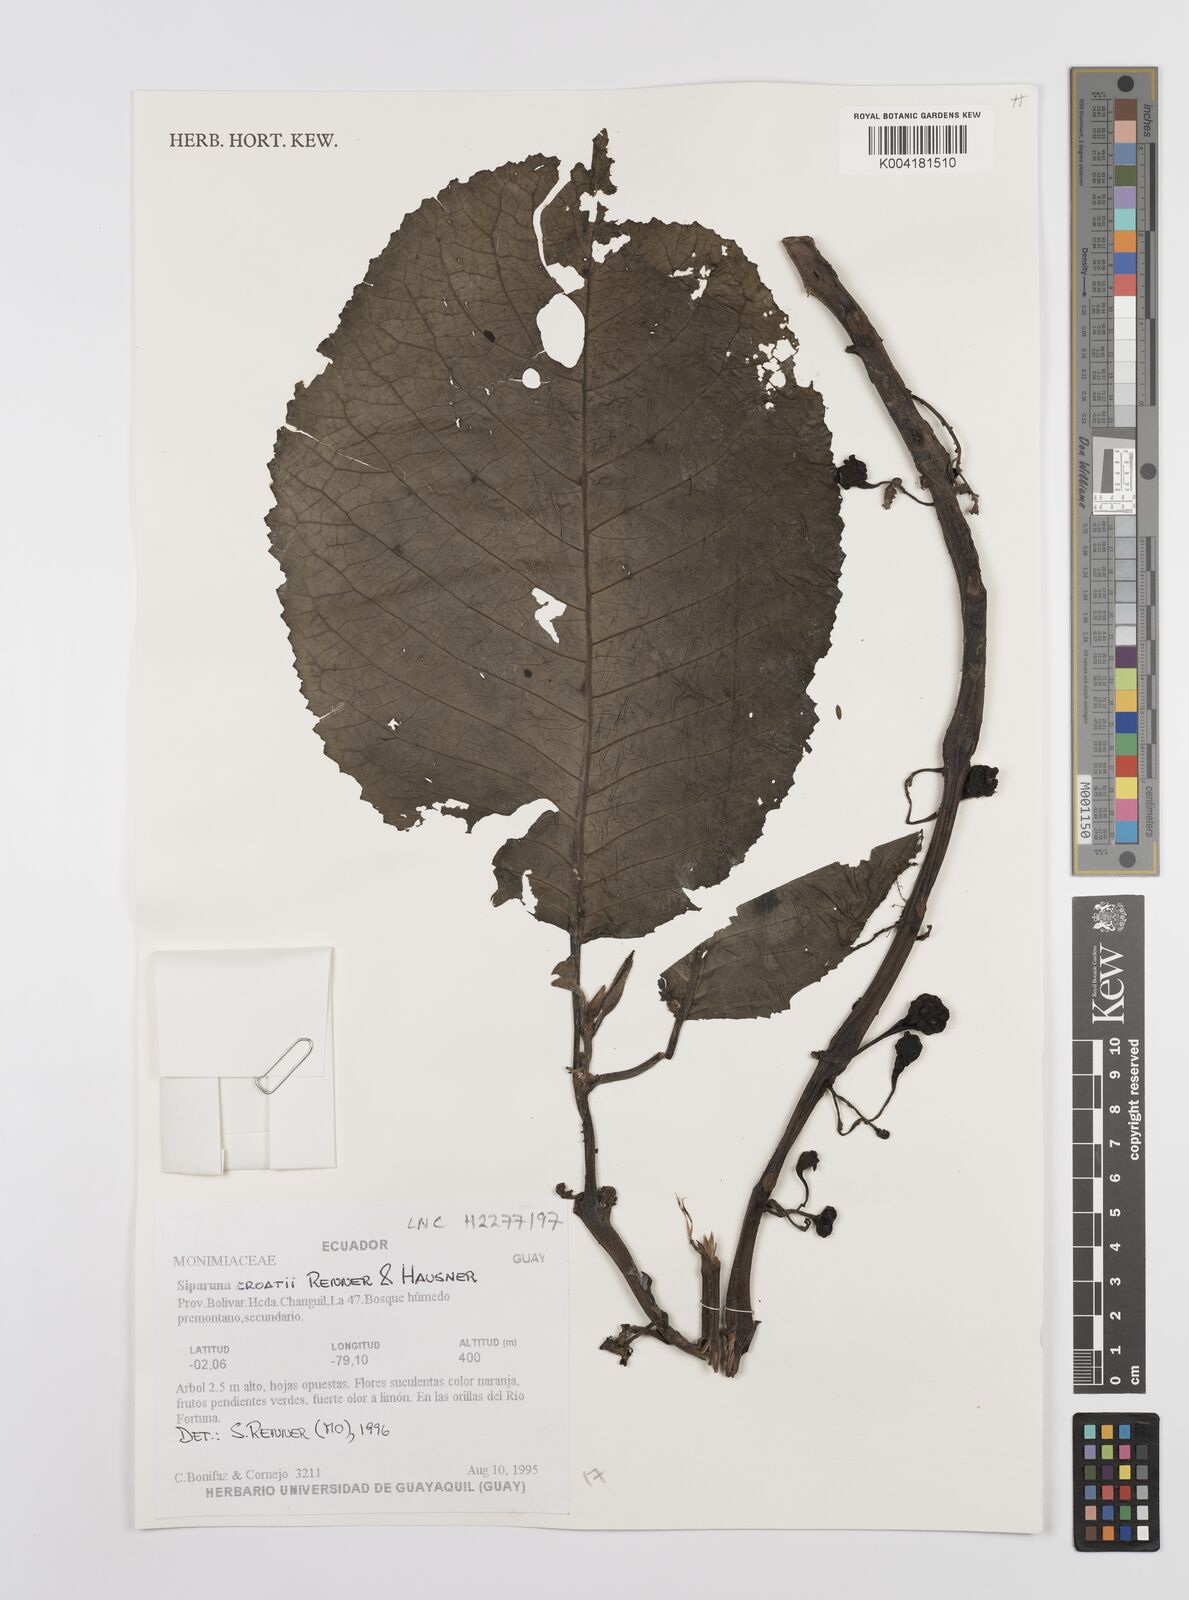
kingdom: Plantae
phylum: Tracheophyta
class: Magnoliopsida
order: Laurales
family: Siparunaceae
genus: Siparuna
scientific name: Siparuna croatii
